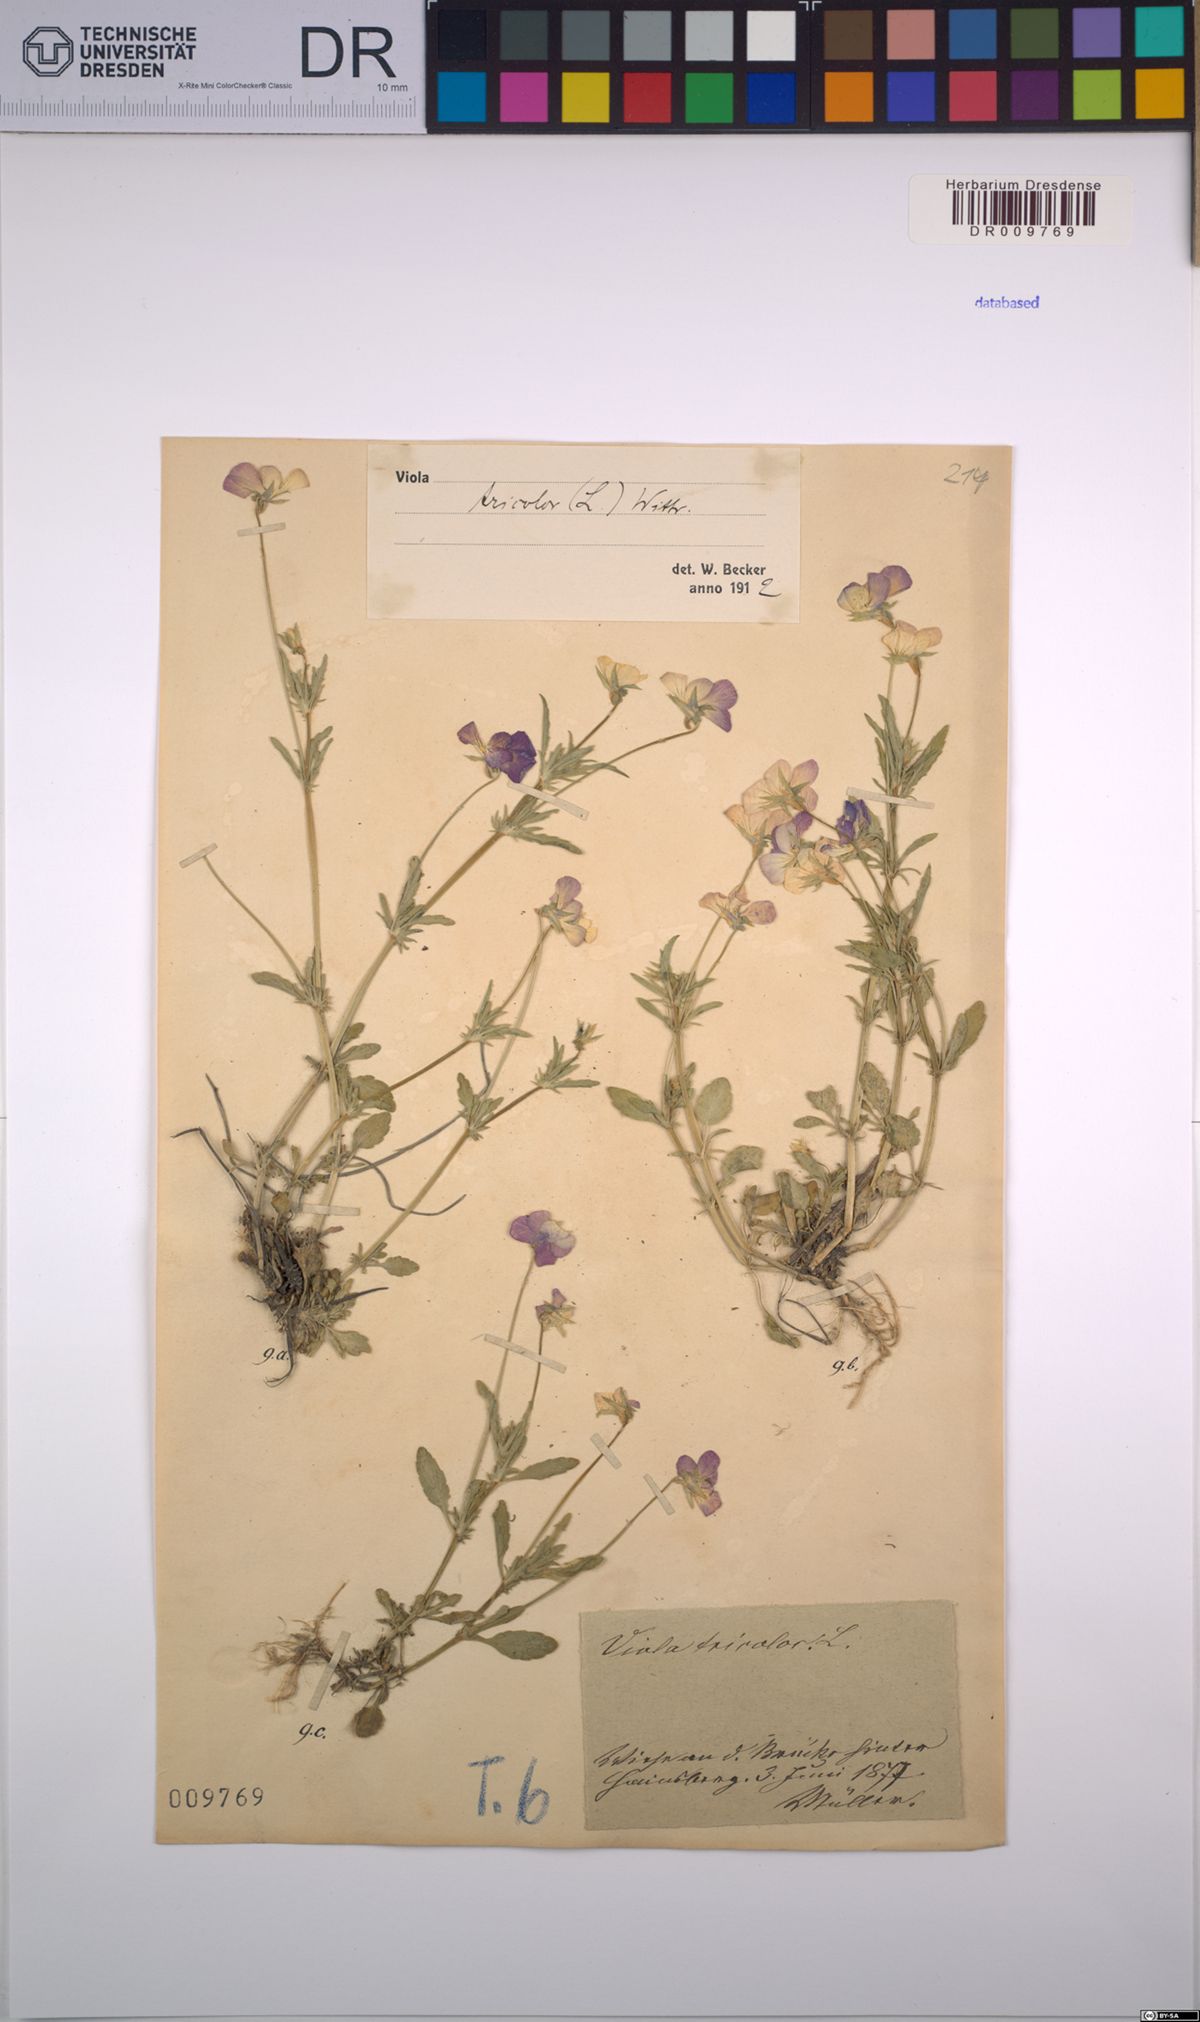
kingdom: Plantae
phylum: Tracheophyta
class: Magnoliopsida
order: Malpighiales
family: Violaceae
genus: Viola
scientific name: Viola tricolor
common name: Pansy
